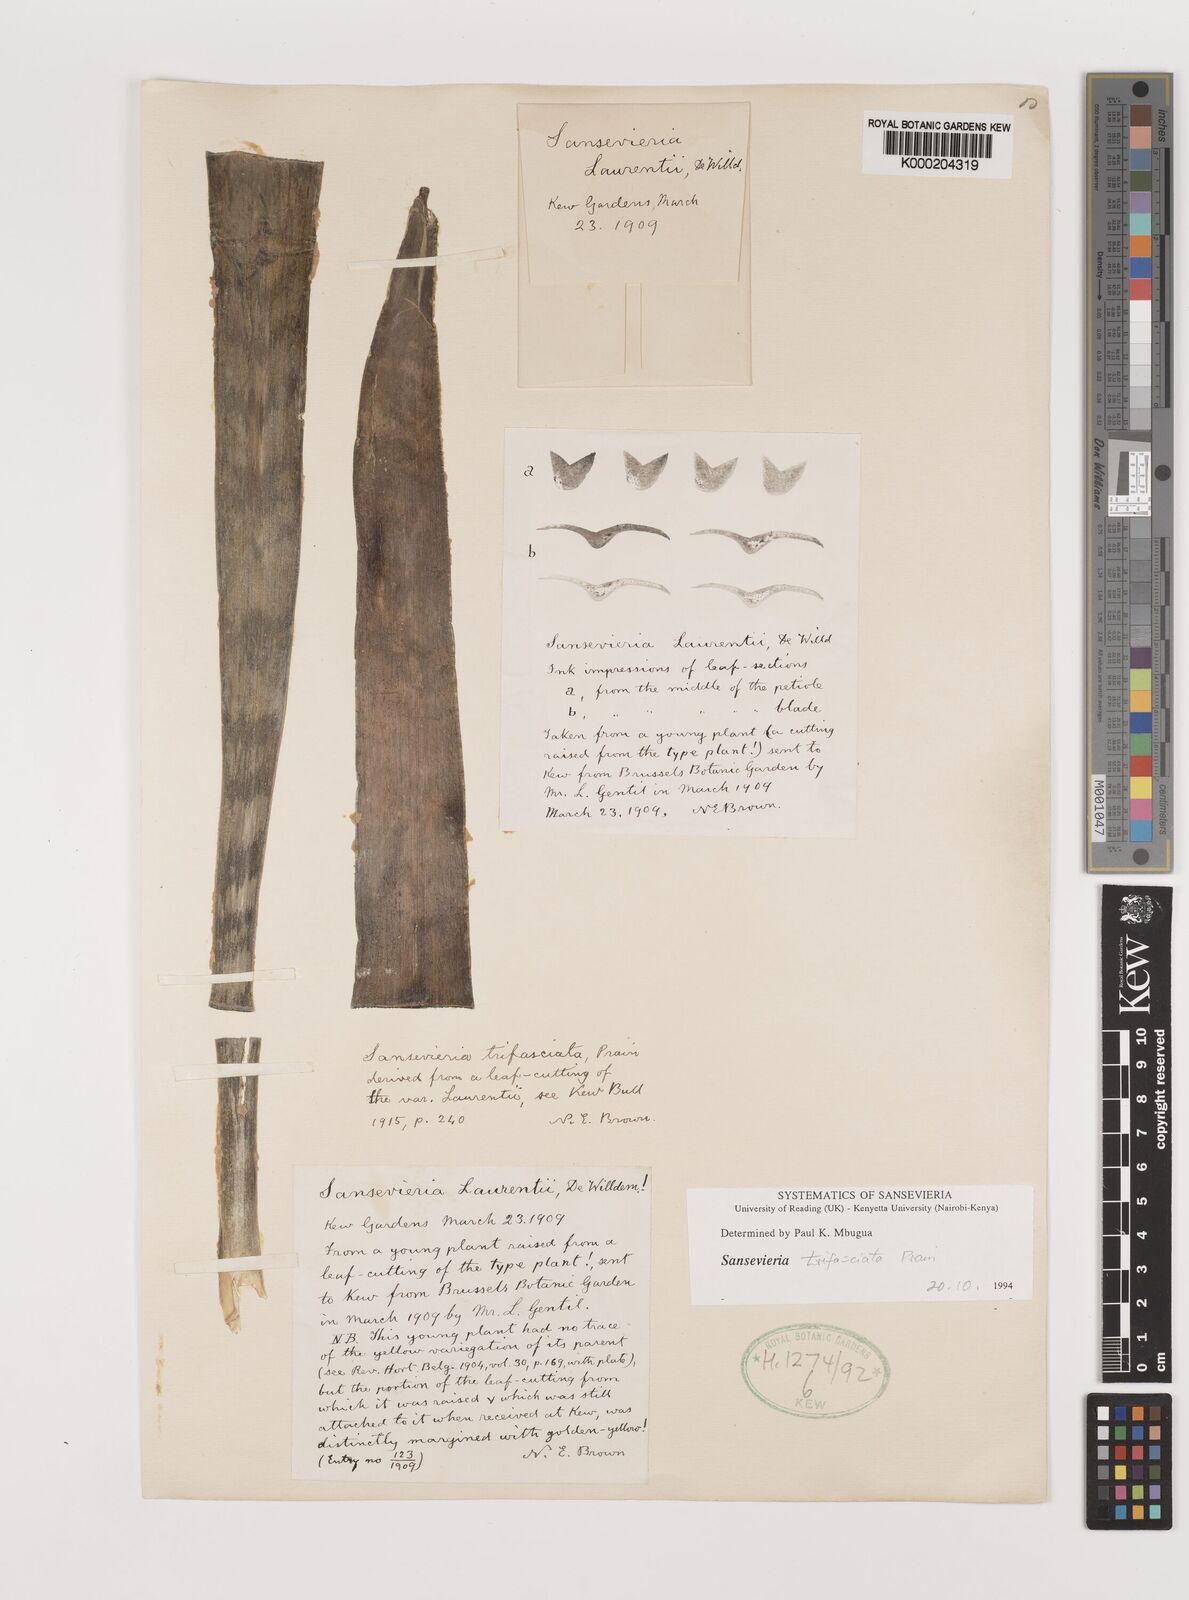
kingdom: Plantae
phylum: Tracheophyta
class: Liliopsida
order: Asparagales
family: Asparagaceae
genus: Dracaena
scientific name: Dracaena trifasciata
